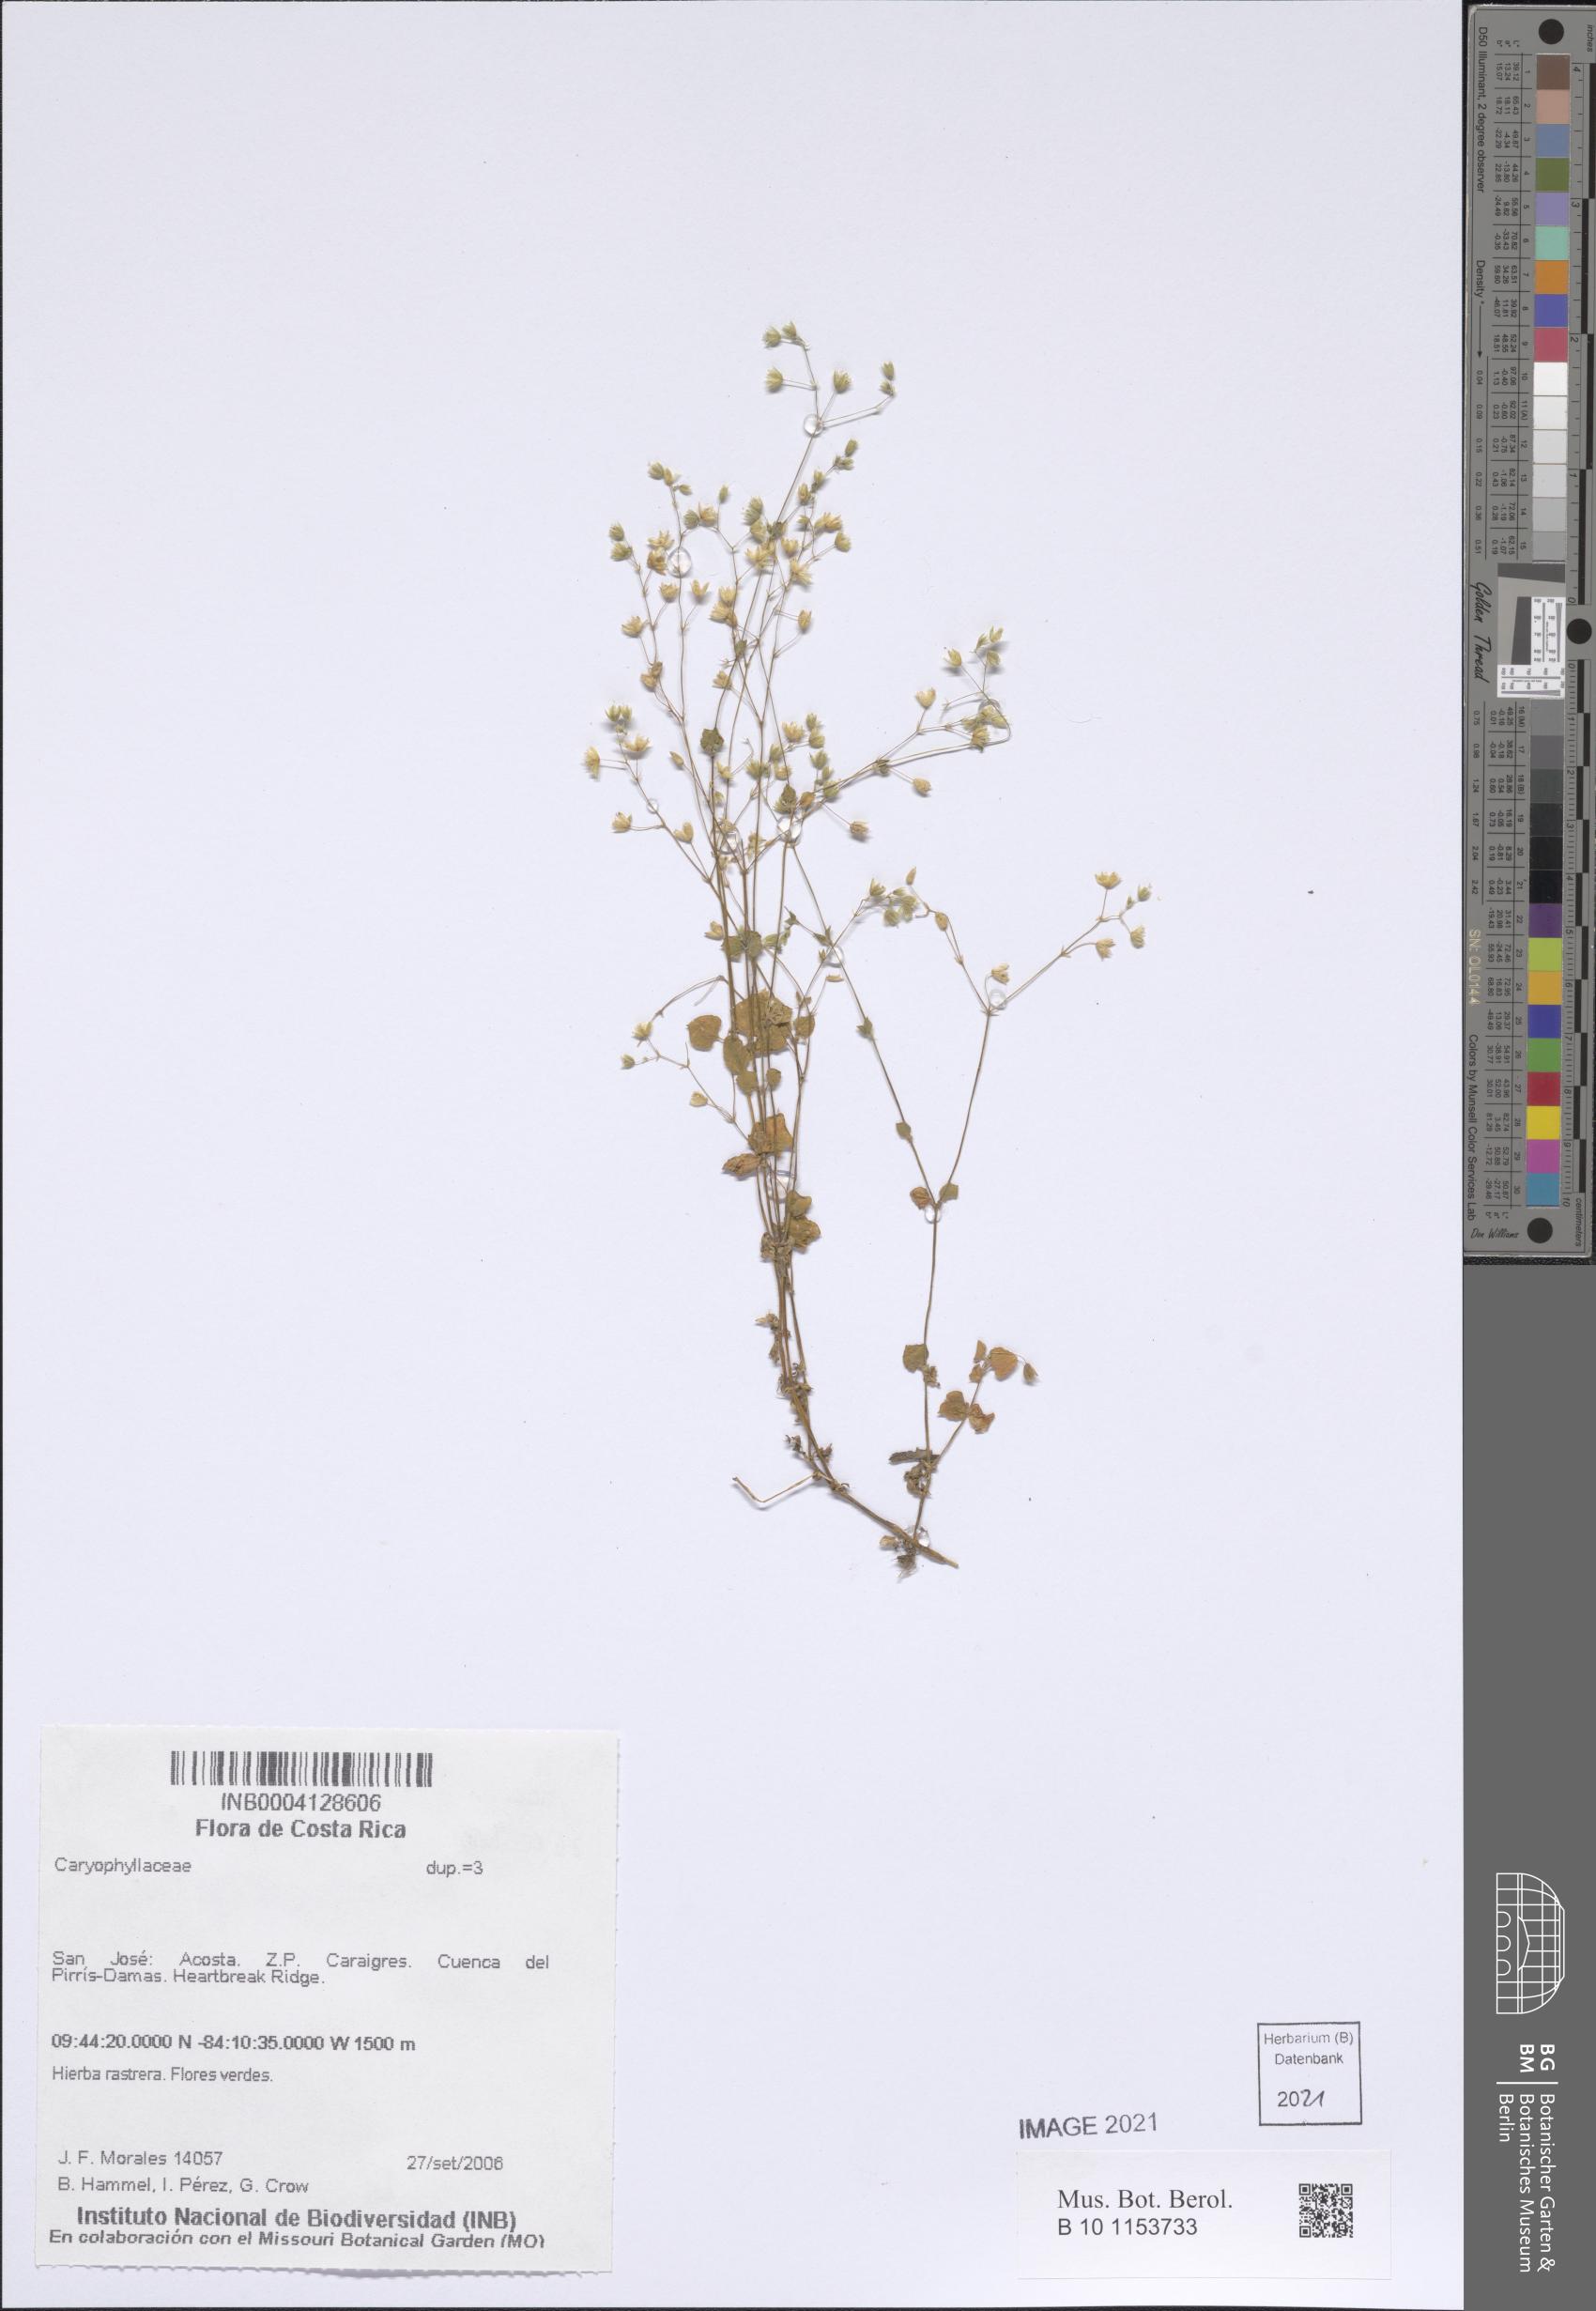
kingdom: Plantae
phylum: Tracheophyta
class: Magnoliopsida
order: Caryophyllales
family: Caryophyllaceae
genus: Drymaria
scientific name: Drymaria villosa
